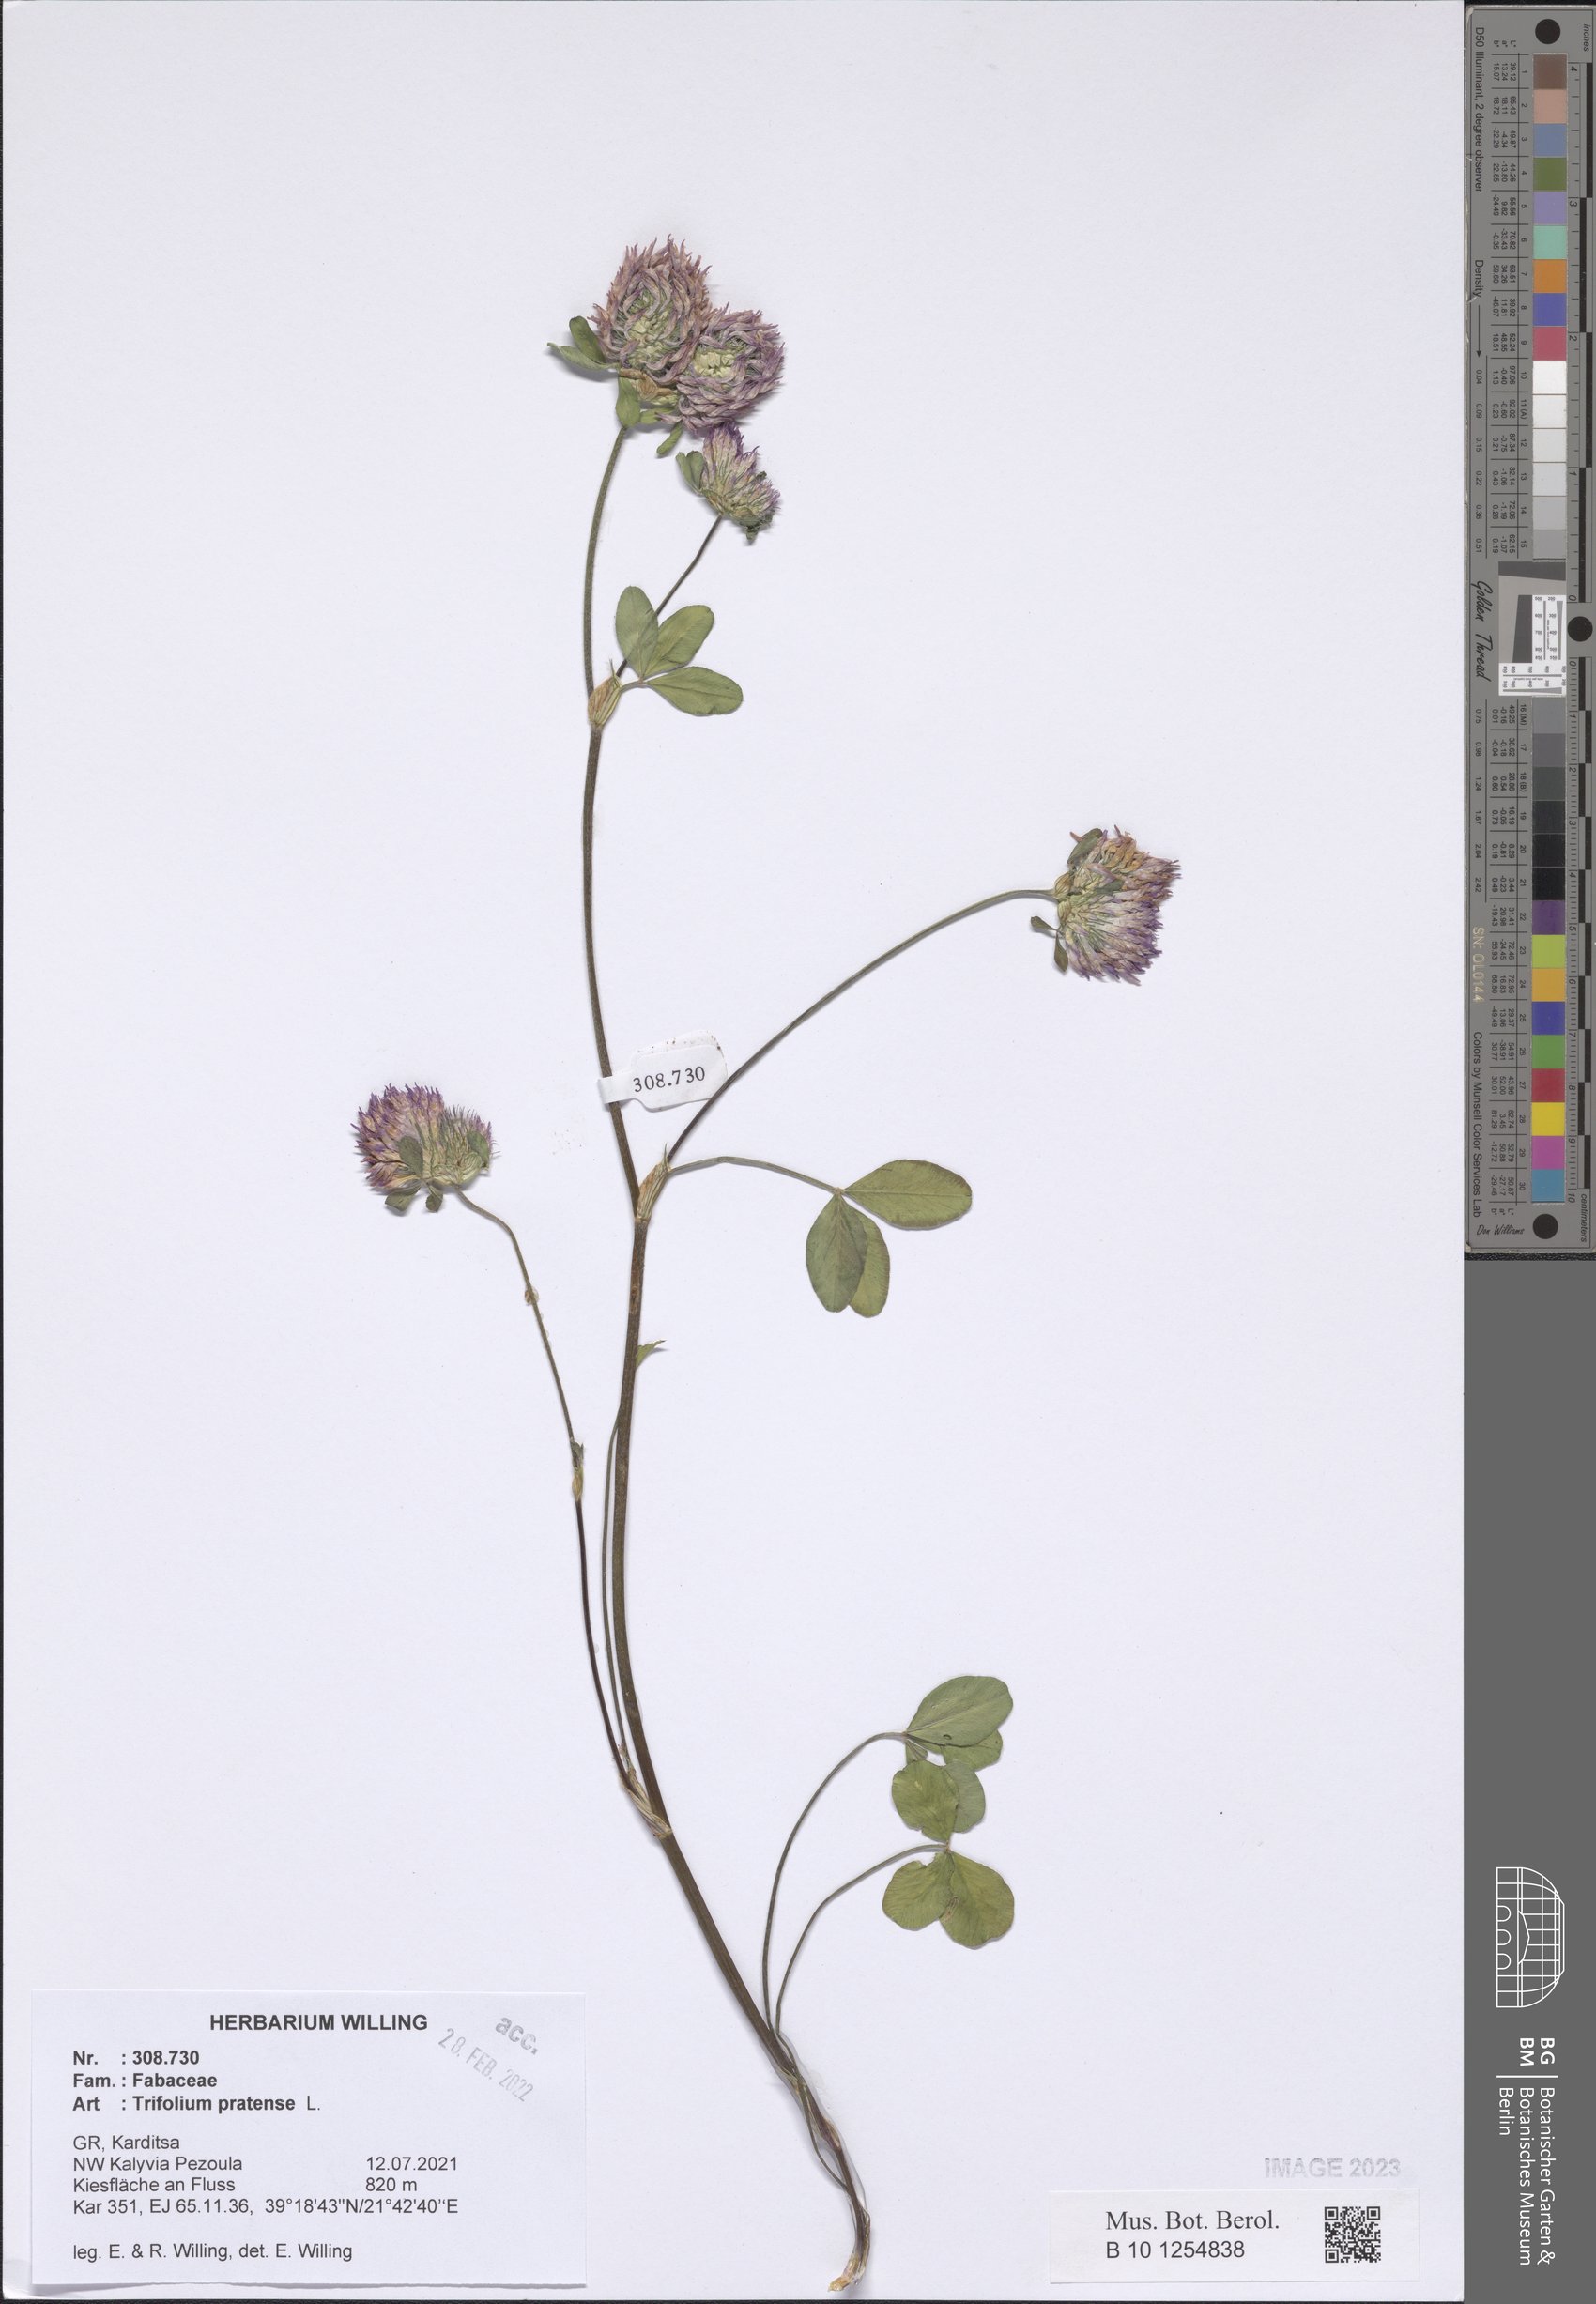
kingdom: Plantae
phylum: Tracheophyta
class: Magnoliopsida
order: Fabales
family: Fabaceae
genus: Trifolium
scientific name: Trifolium pratense
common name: Red clover
